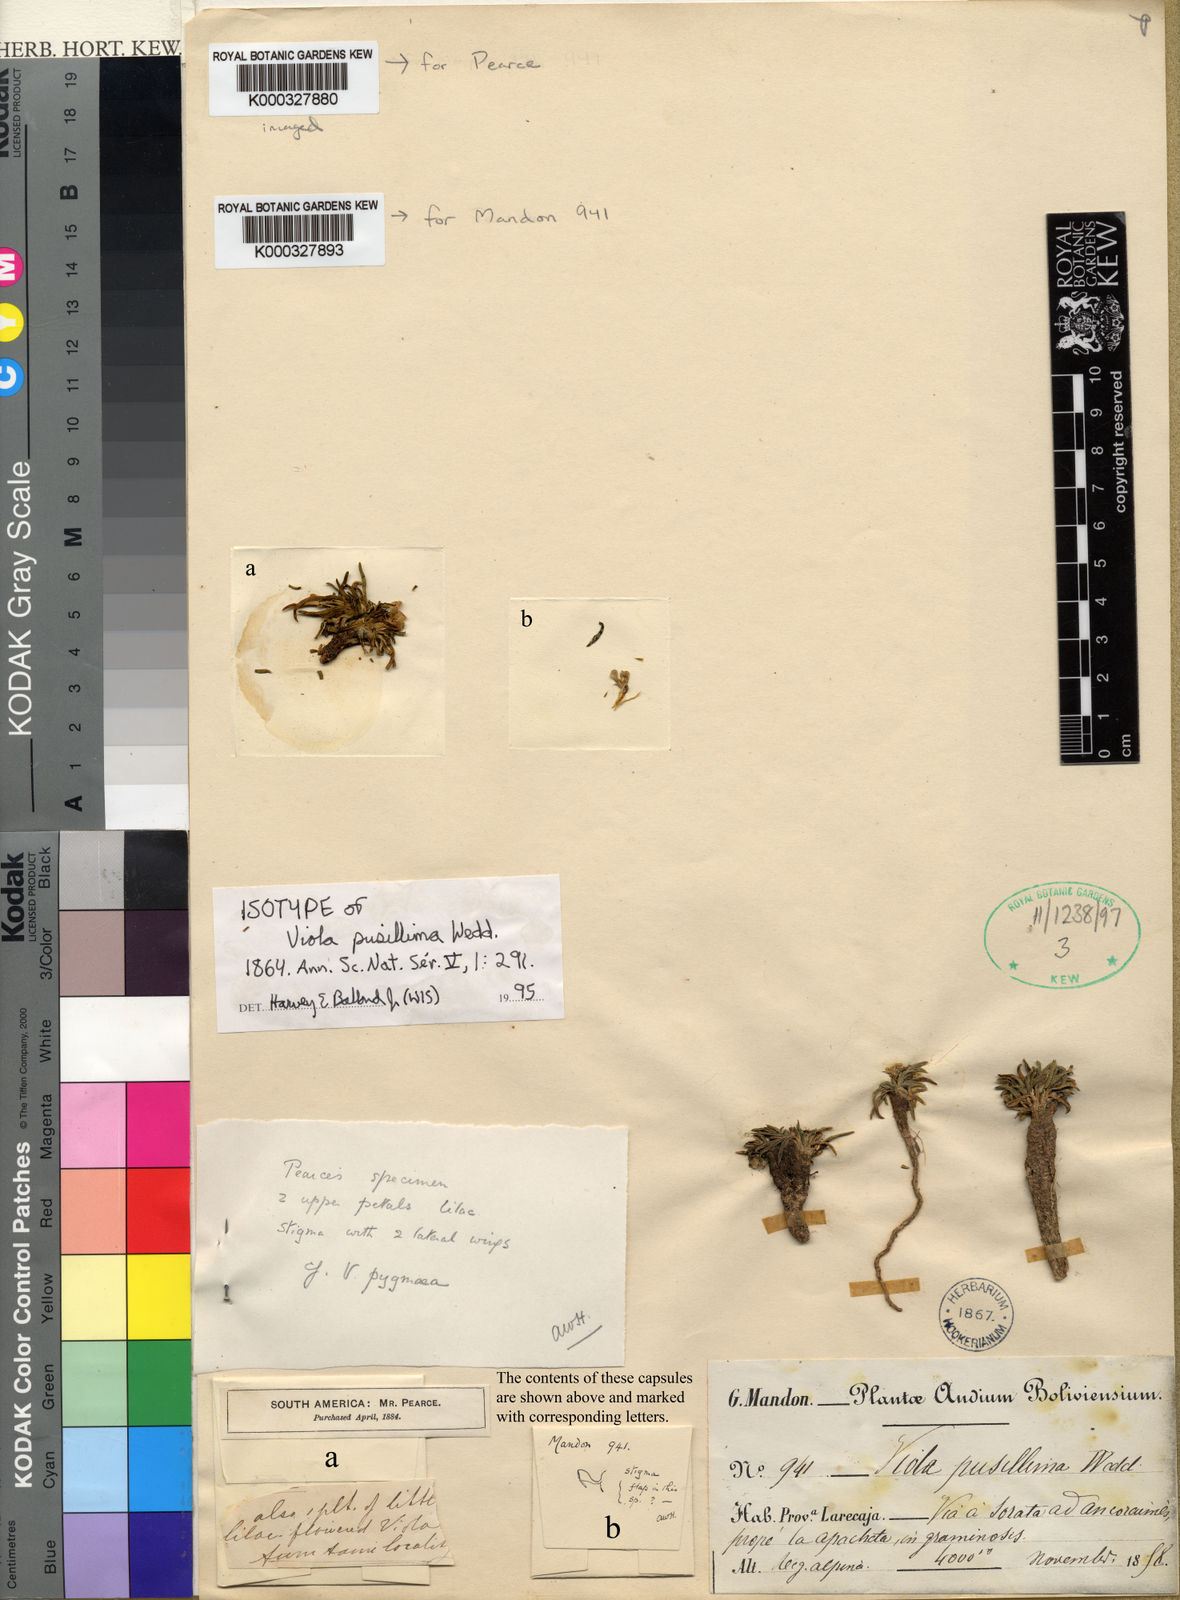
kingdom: Plantae
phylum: Tracheophyta
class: Magnoliopsida
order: Malpighiales
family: Violaceae
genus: Viola
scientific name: Viola pusillima
